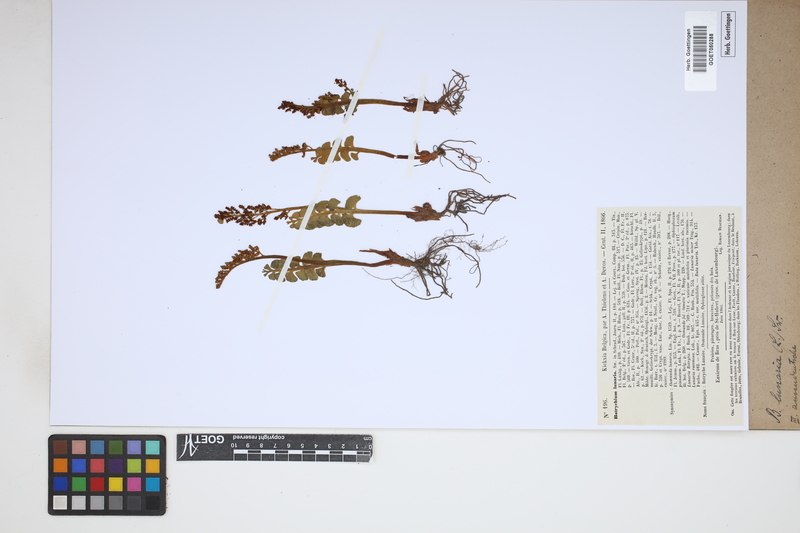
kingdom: Plantae
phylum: Tracheophyta
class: Polypodiopsida
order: Ophioglossales
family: Ophioglossaceae
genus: Botrychium
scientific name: Botrychium lunaria
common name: Moonwort
